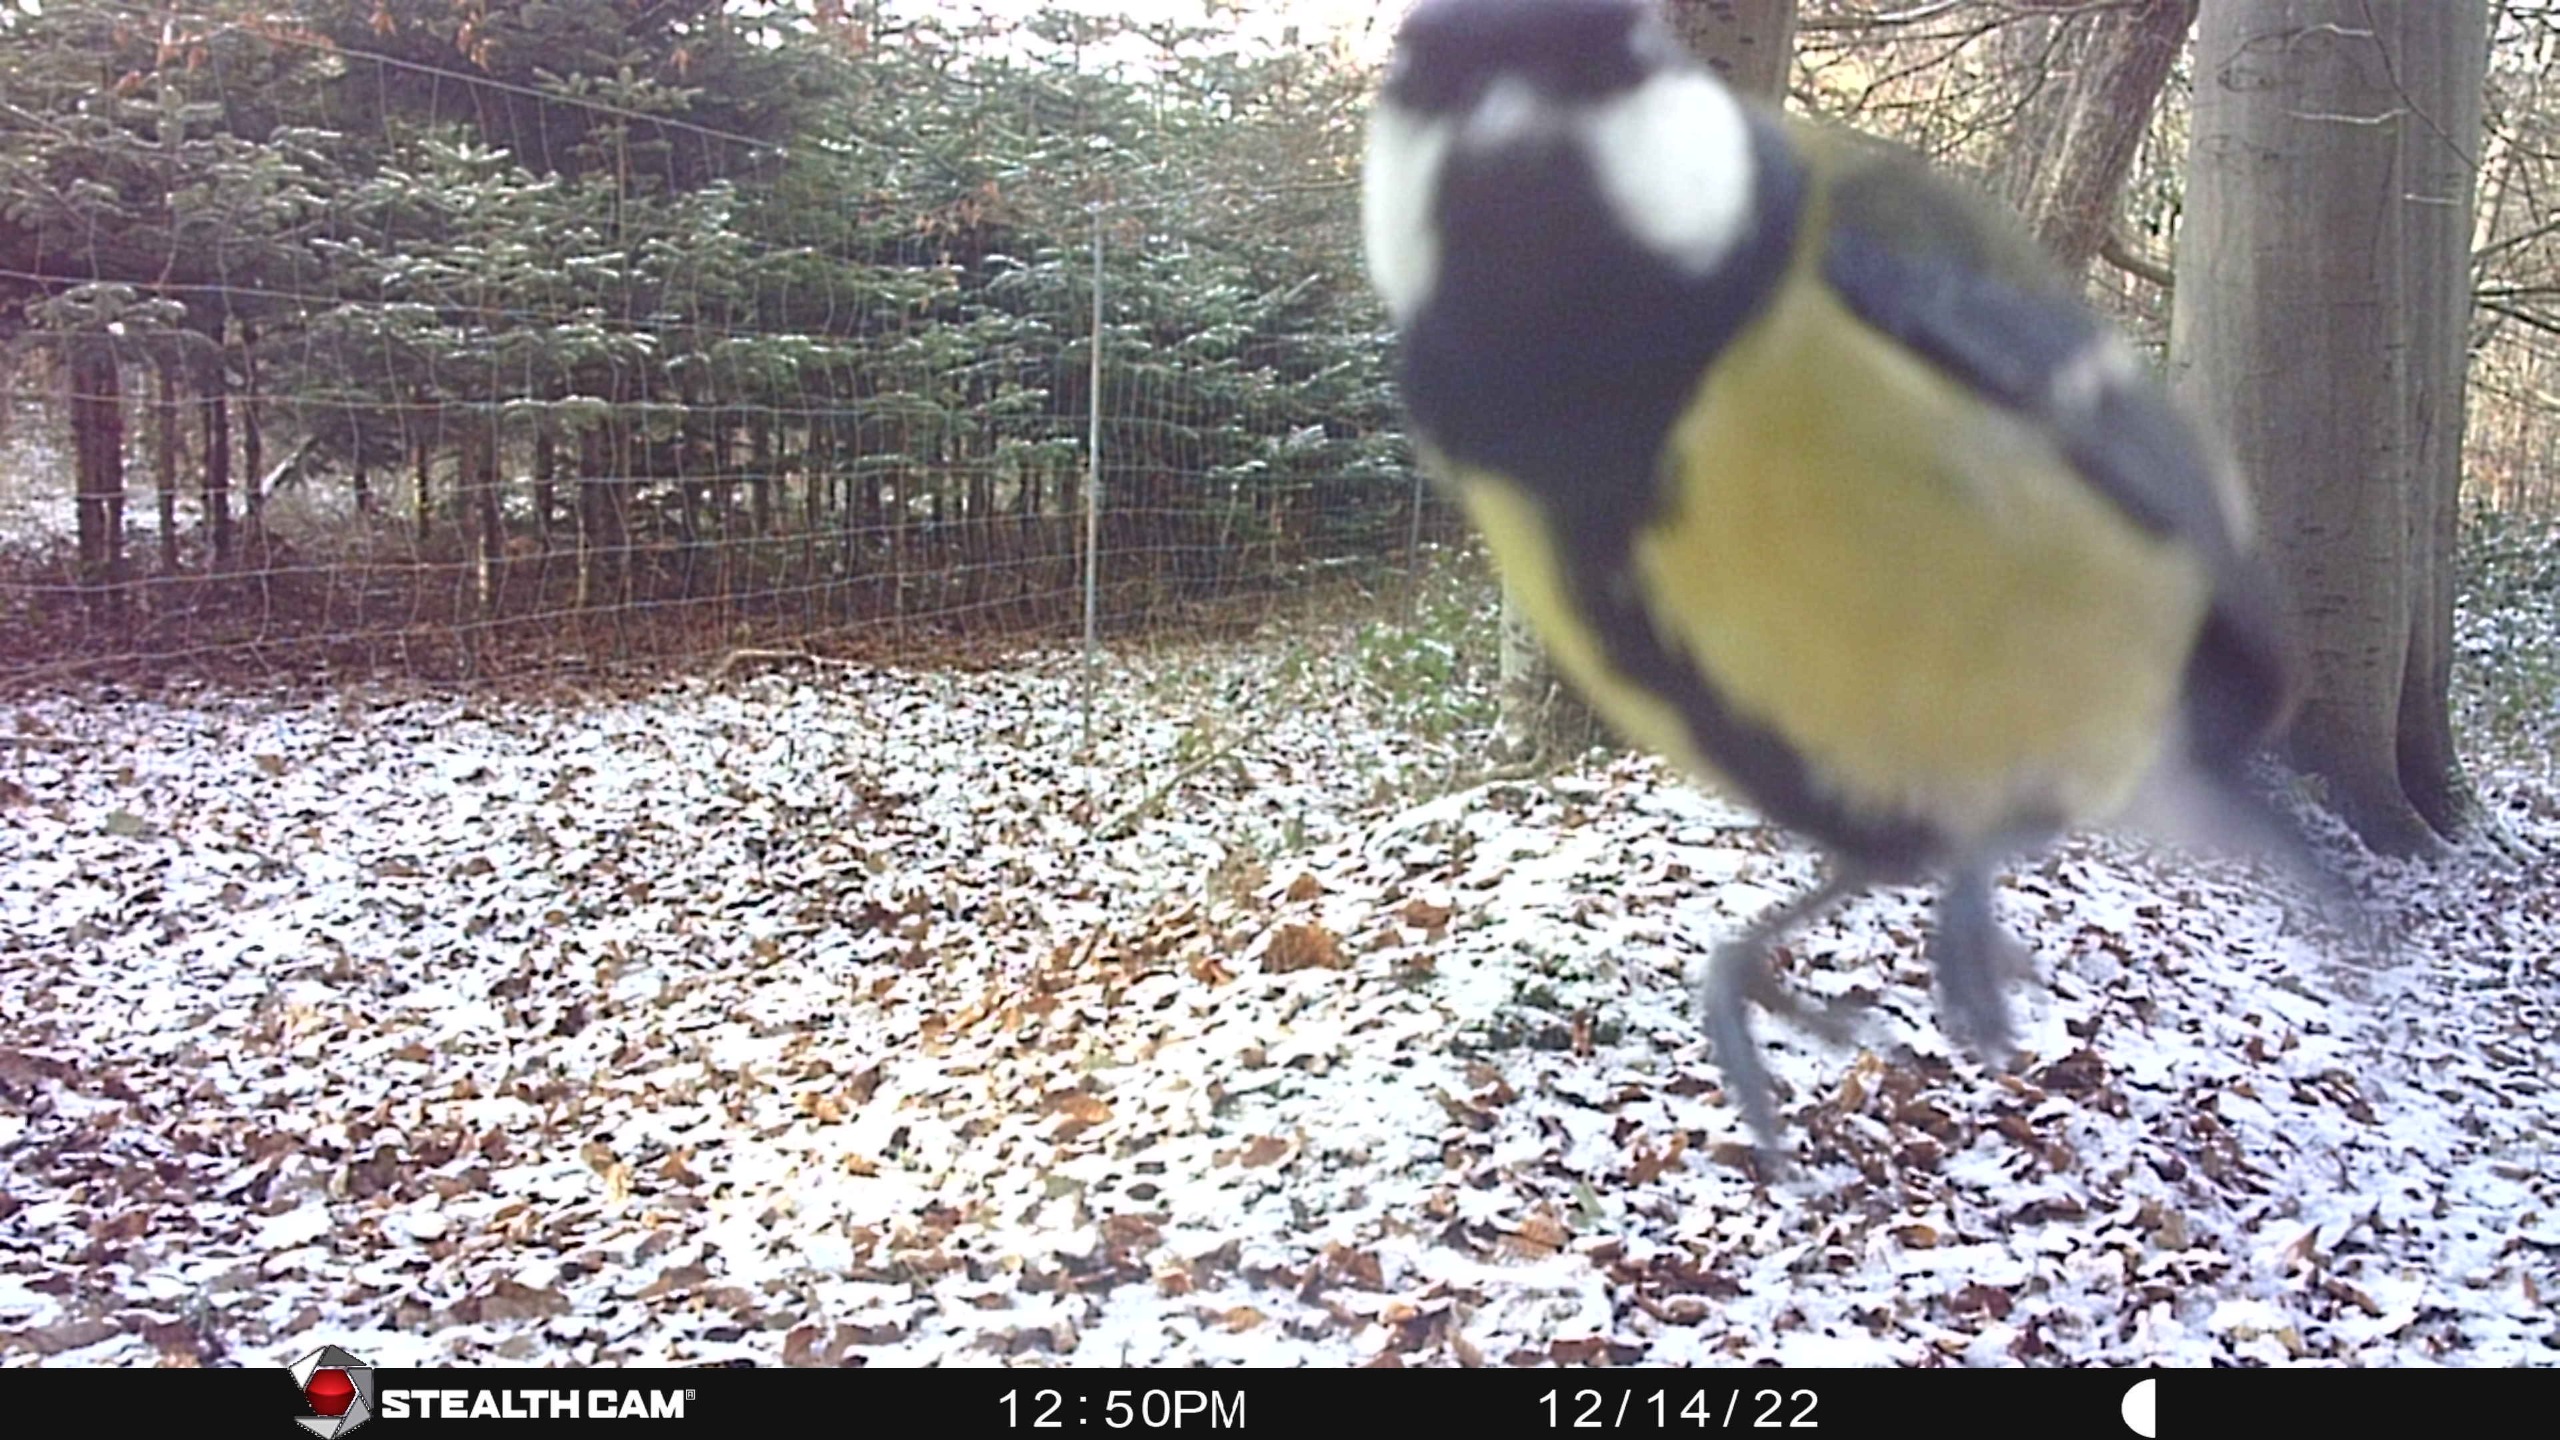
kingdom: Animalia
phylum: Chordata
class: Aves
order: Passeriformes
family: Paridae
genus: Parus
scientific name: Parus major
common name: Musvit
